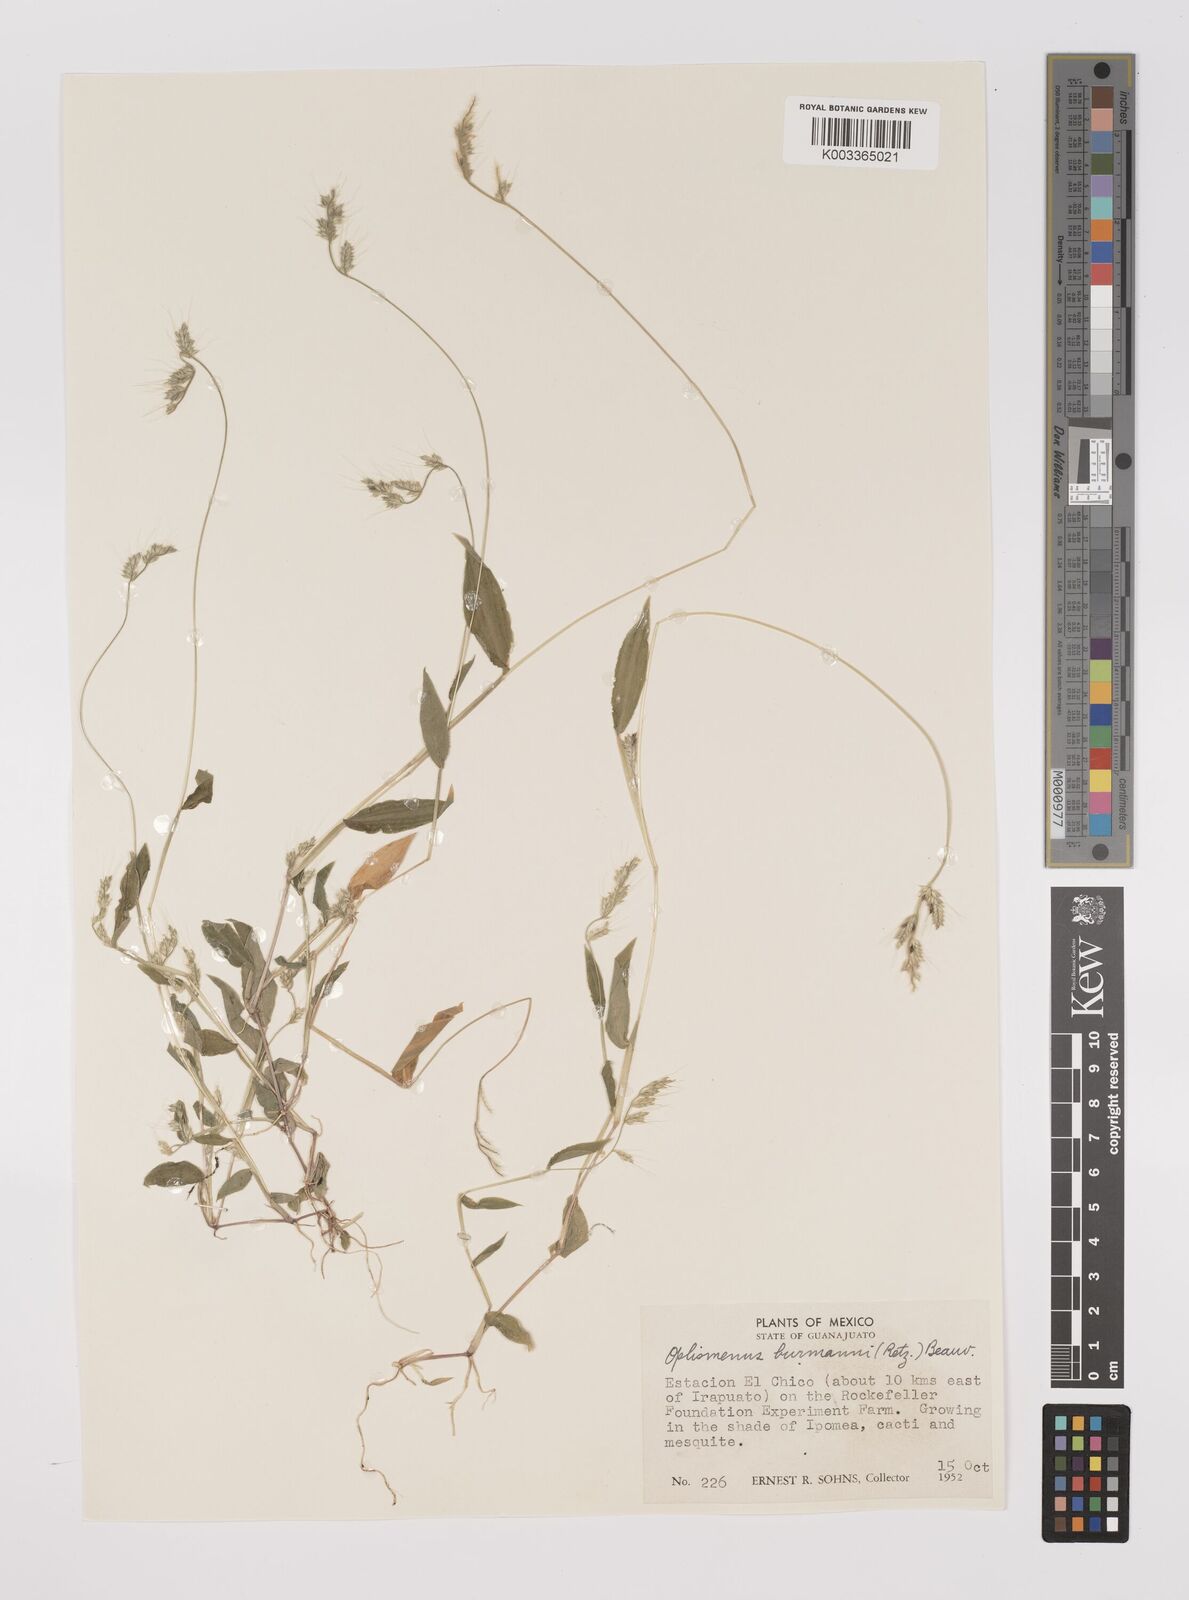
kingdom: Plantae
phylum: Tracheophyta
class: Liliopsida
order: Poales
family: Poaceae
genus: Oplismenus
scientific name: Oplismenus burmanni
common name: Burmann's basketgrass
